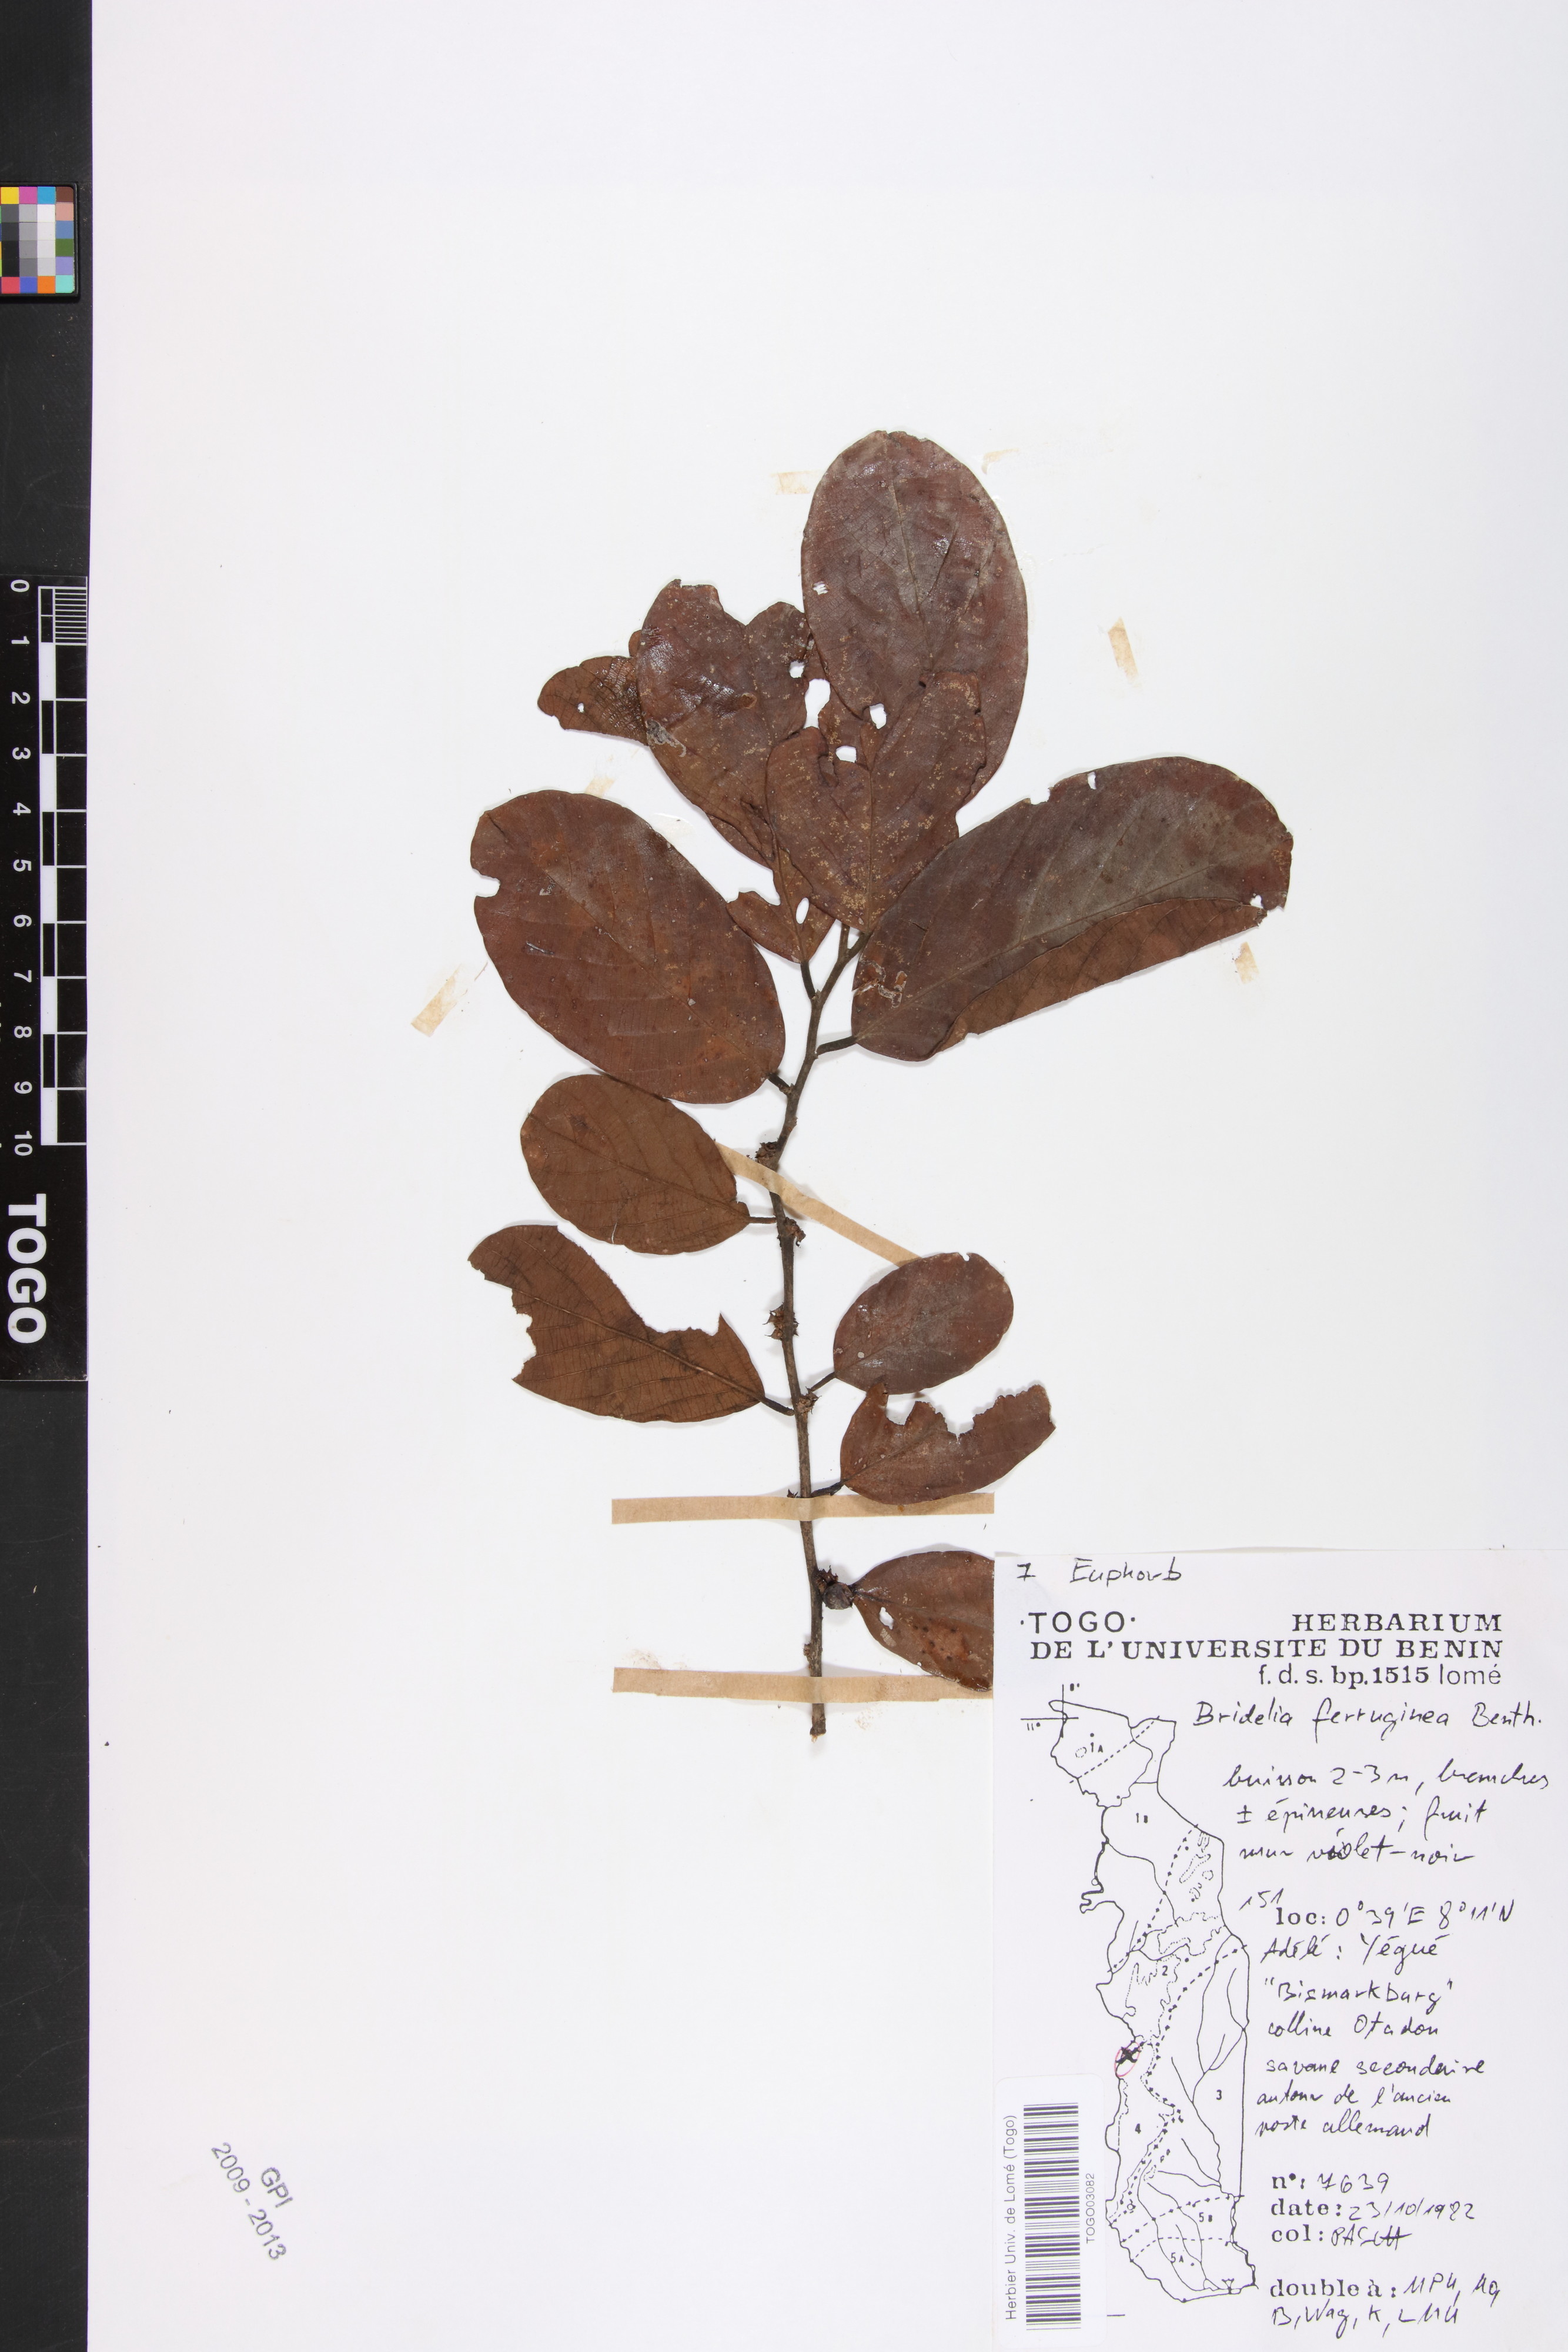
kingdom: Plantae
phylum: Tracheophyta
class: Magnoliopsida
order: Malpighiales
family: Phyllanthaceae
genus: Bridelia
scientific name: Bridelia ferruginea
